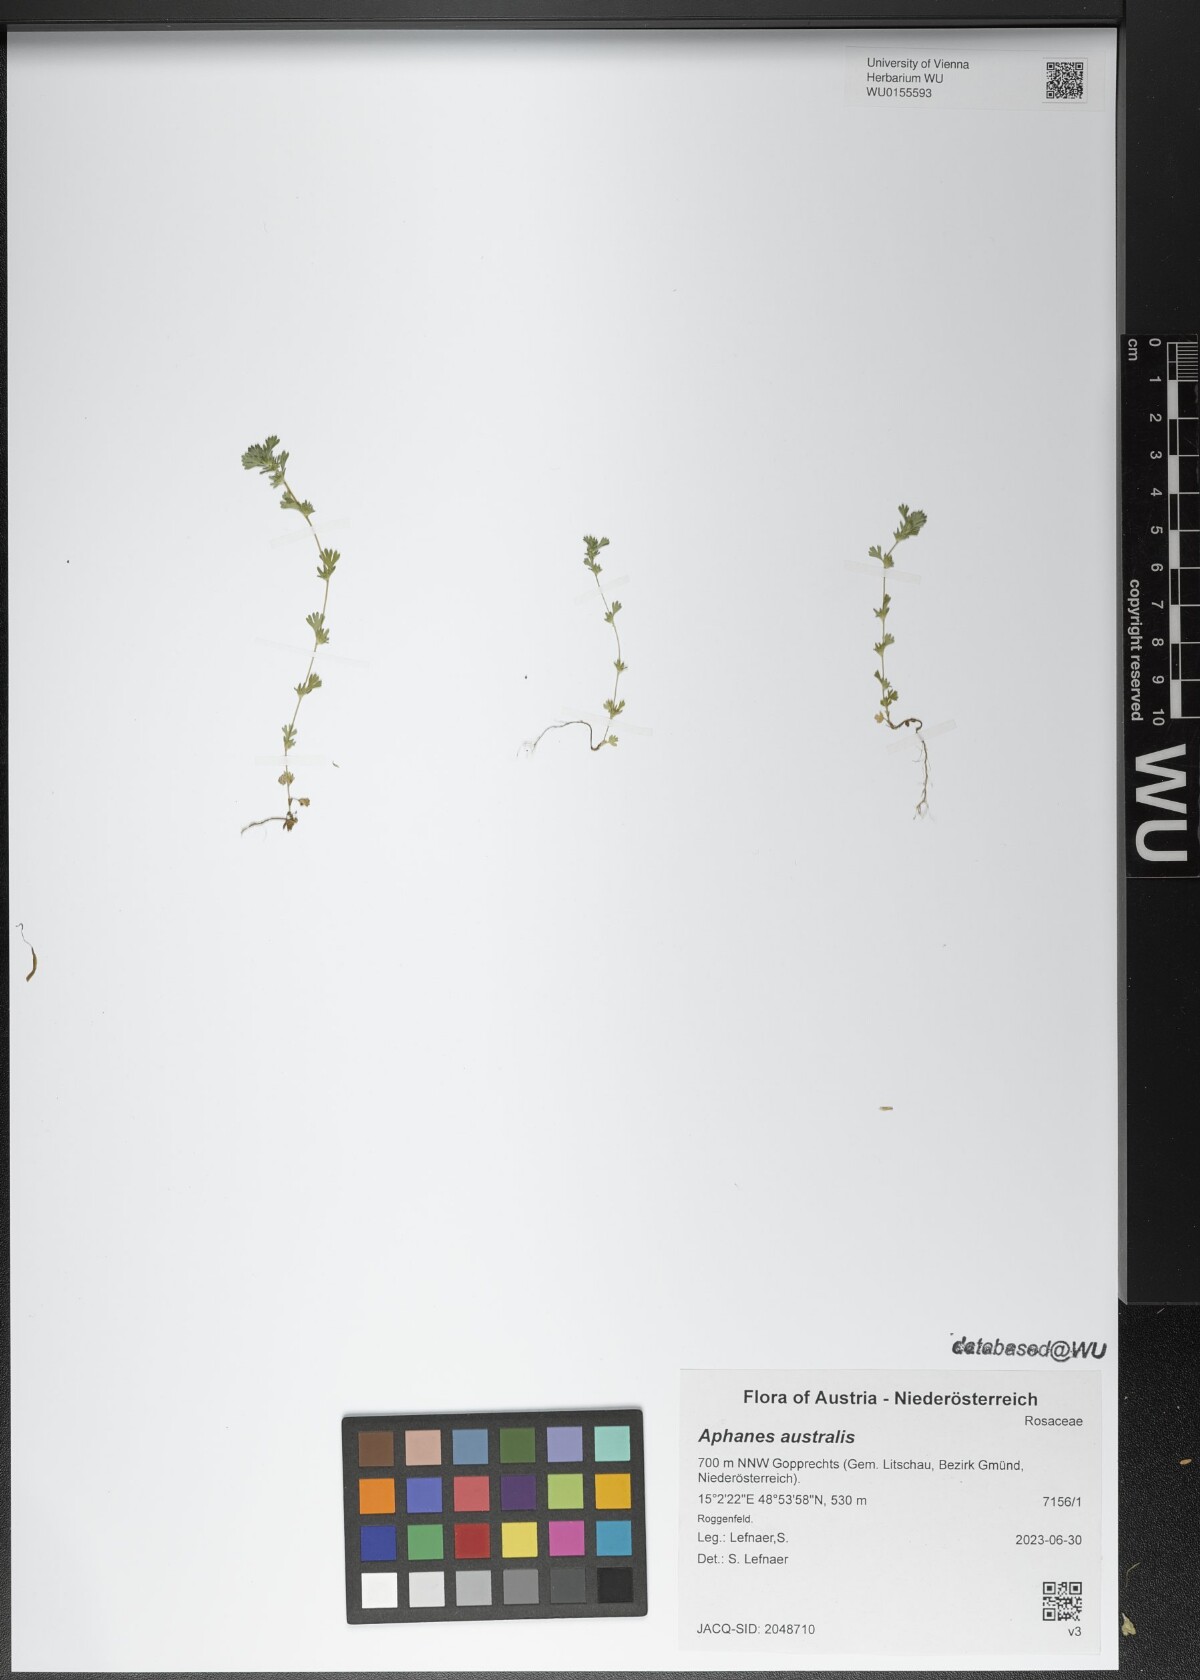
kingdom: Plantae
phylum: Tracheophyta
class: Magnoliopsida
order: Rosales
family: Rosaceae
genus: Aphanes
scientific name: Aphanes australis
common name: Slender parsley-piert
